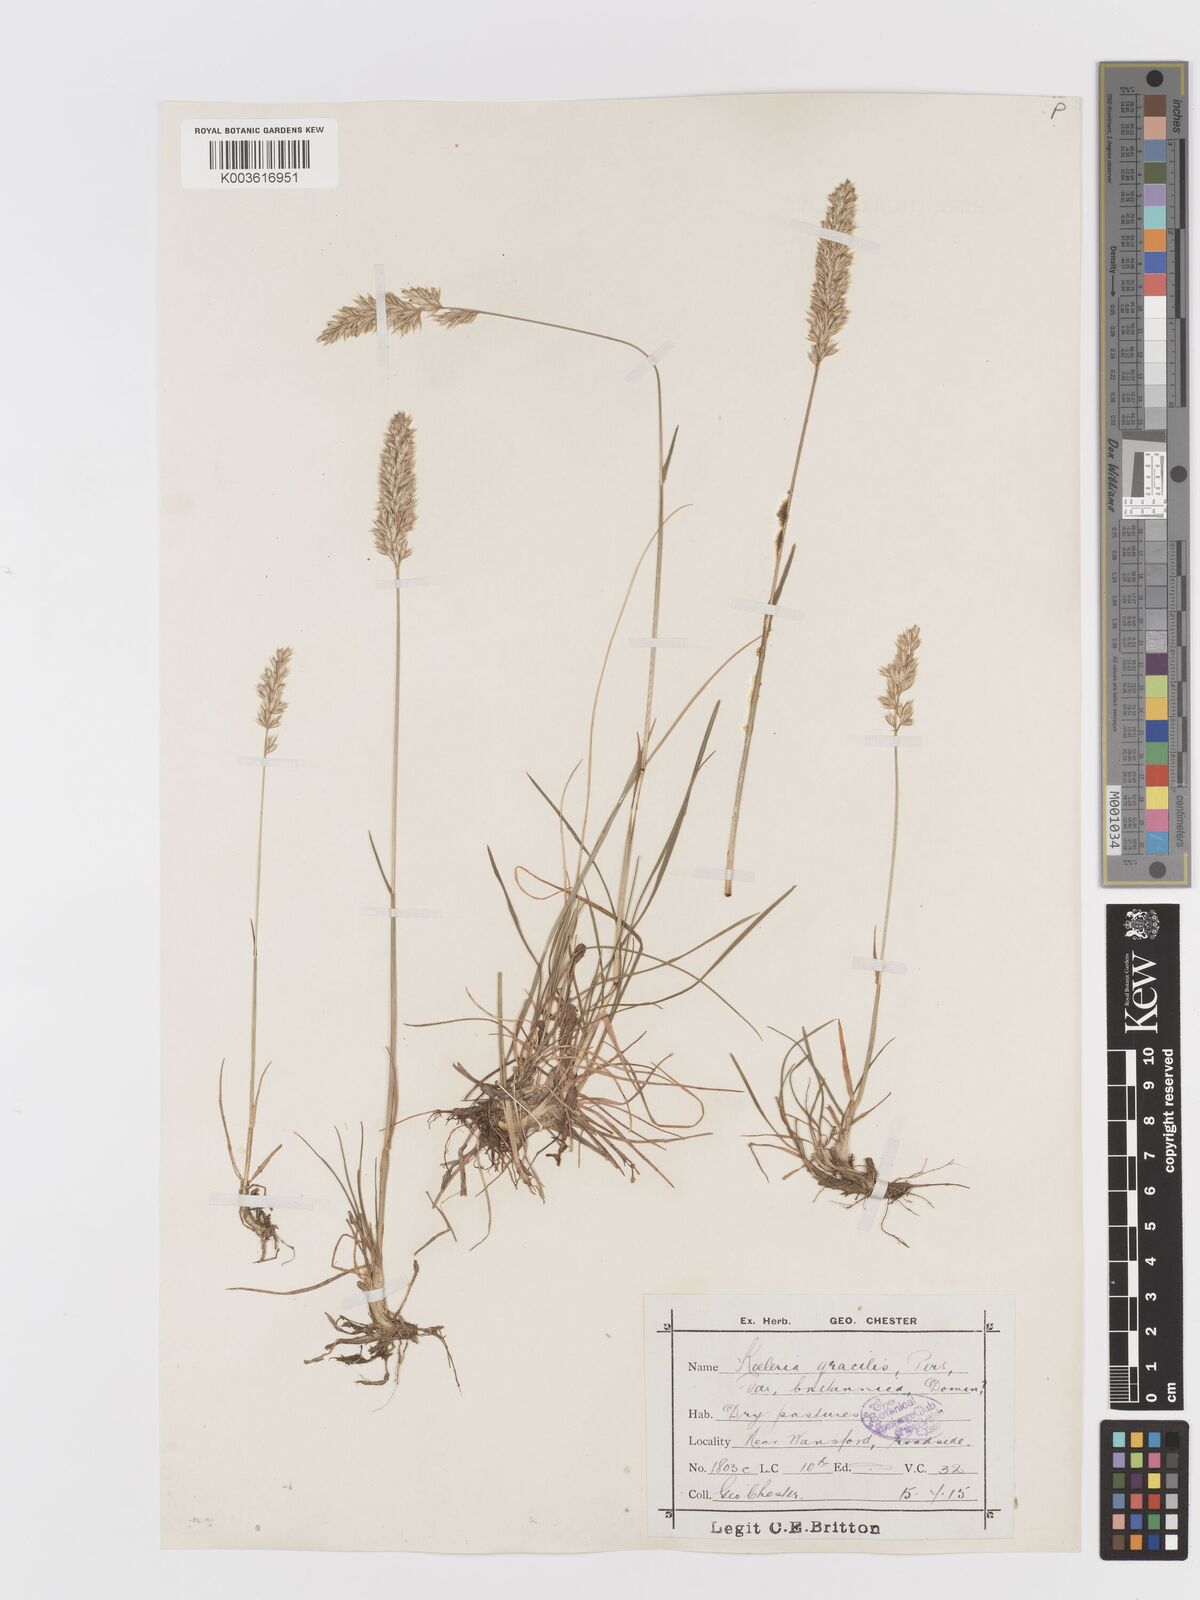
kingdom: Plantae
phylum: Tracheophyta
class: Liliopsida
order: Poales
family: Poaceae
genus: Koeleria
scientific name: Koeleria macrantha
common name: Crested hair-grass
